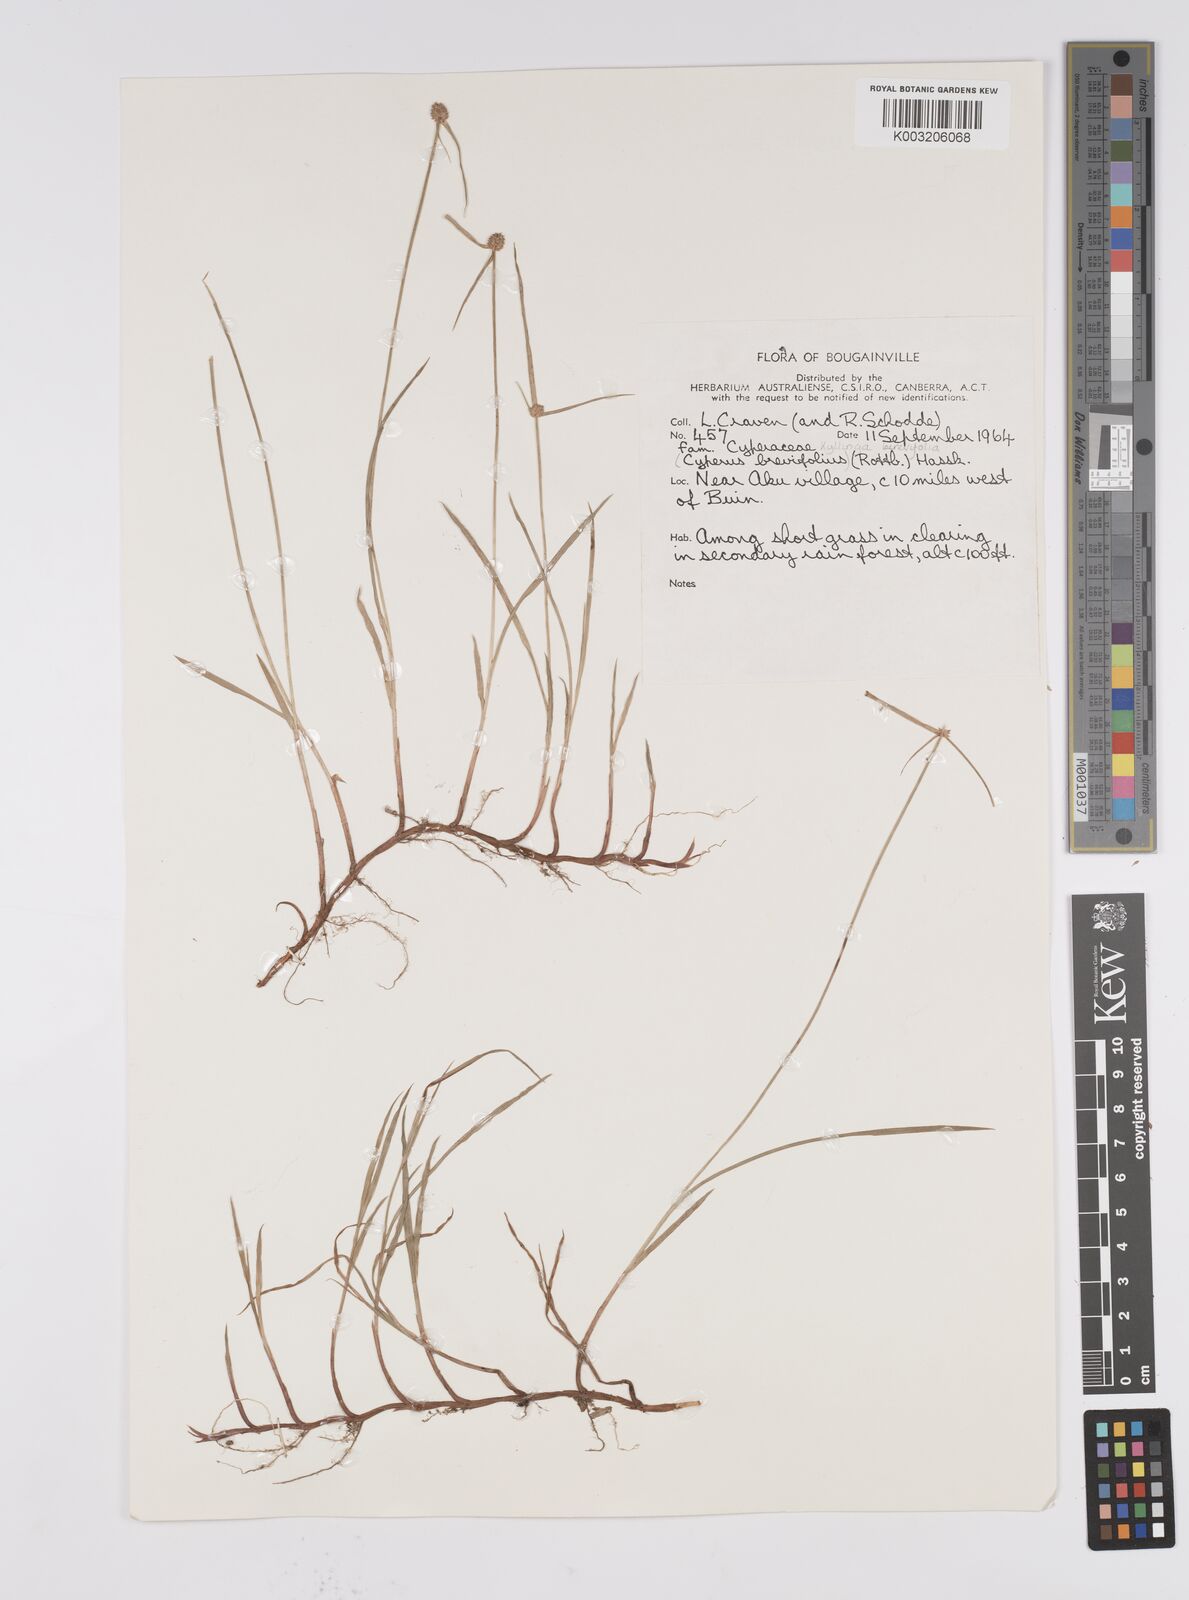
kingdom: Plantae
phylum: Tracheophyta
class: Liliopsida
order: Poales
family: Cyperaceae
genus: Cyperus
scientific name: Cyperus brevifolius
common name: Globe kyllinga
